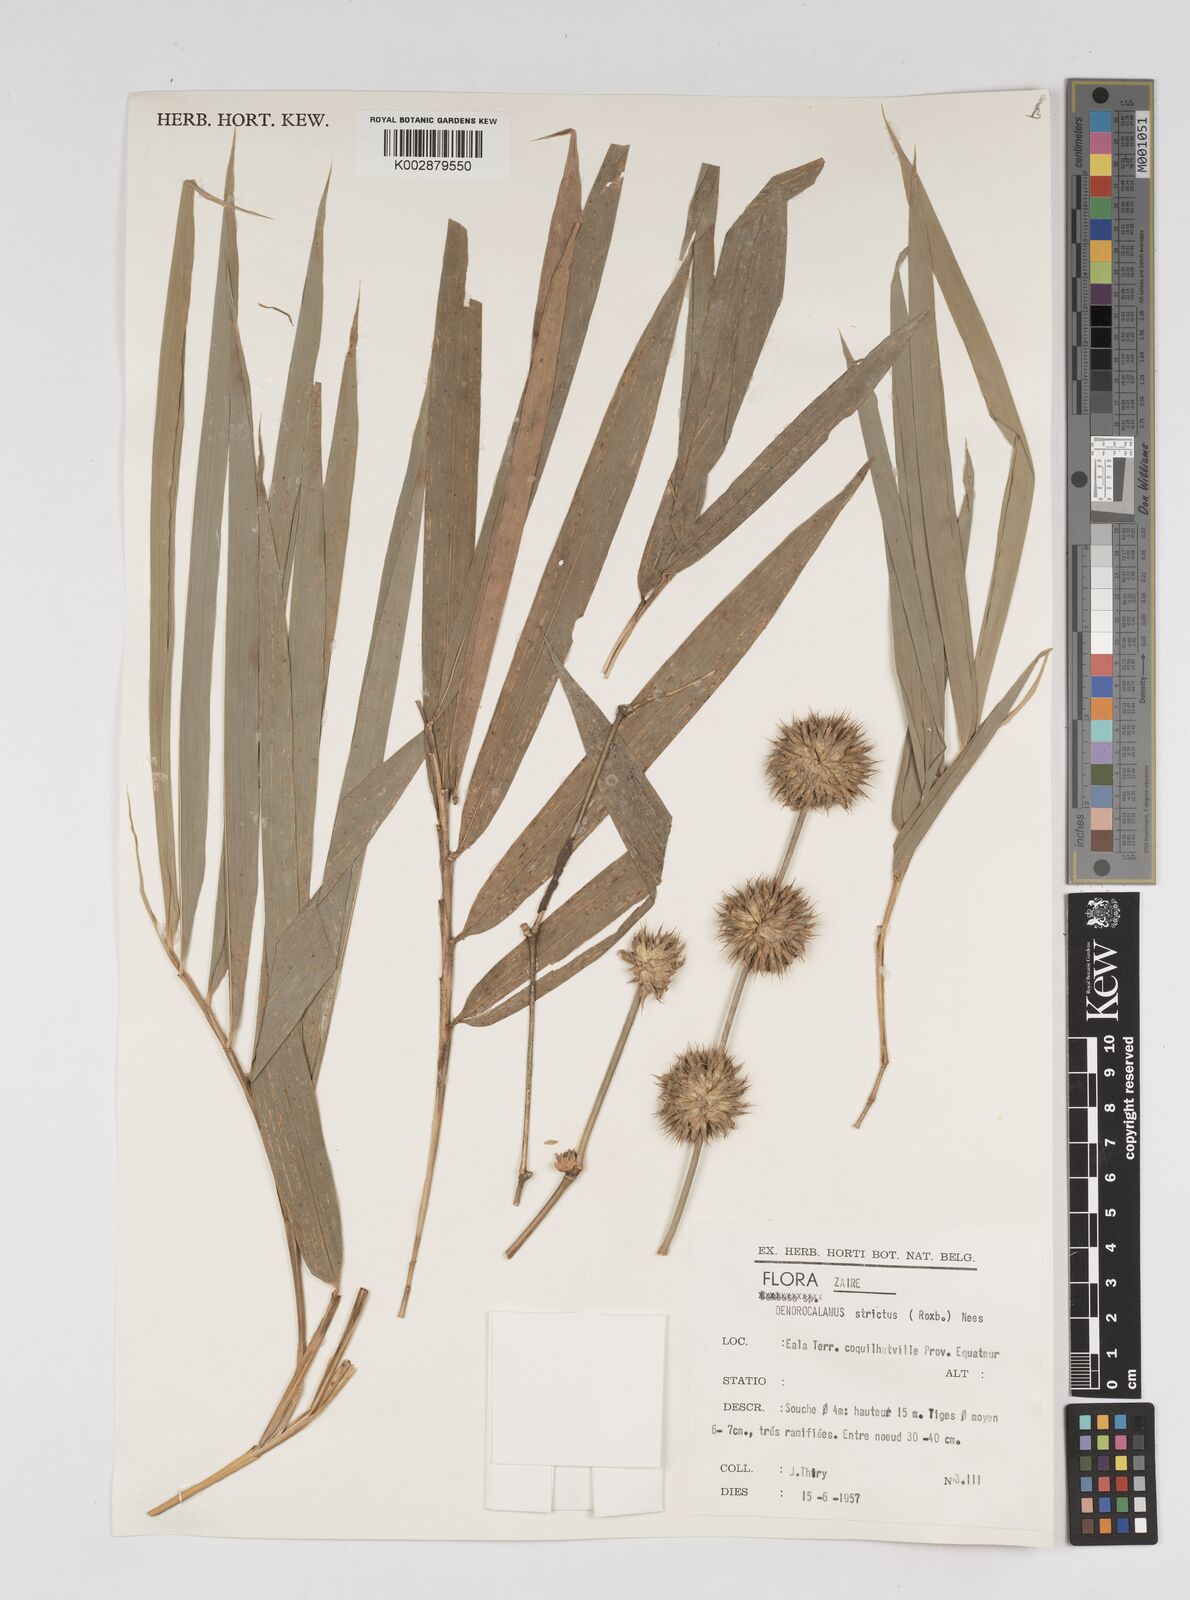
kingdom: Plantae
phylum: Tracheophyta
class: Liliopsida
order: Poales
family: Poaceae
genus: Dendrocalamus
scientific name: Dendrocalamus strictus
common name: Male bamboo
